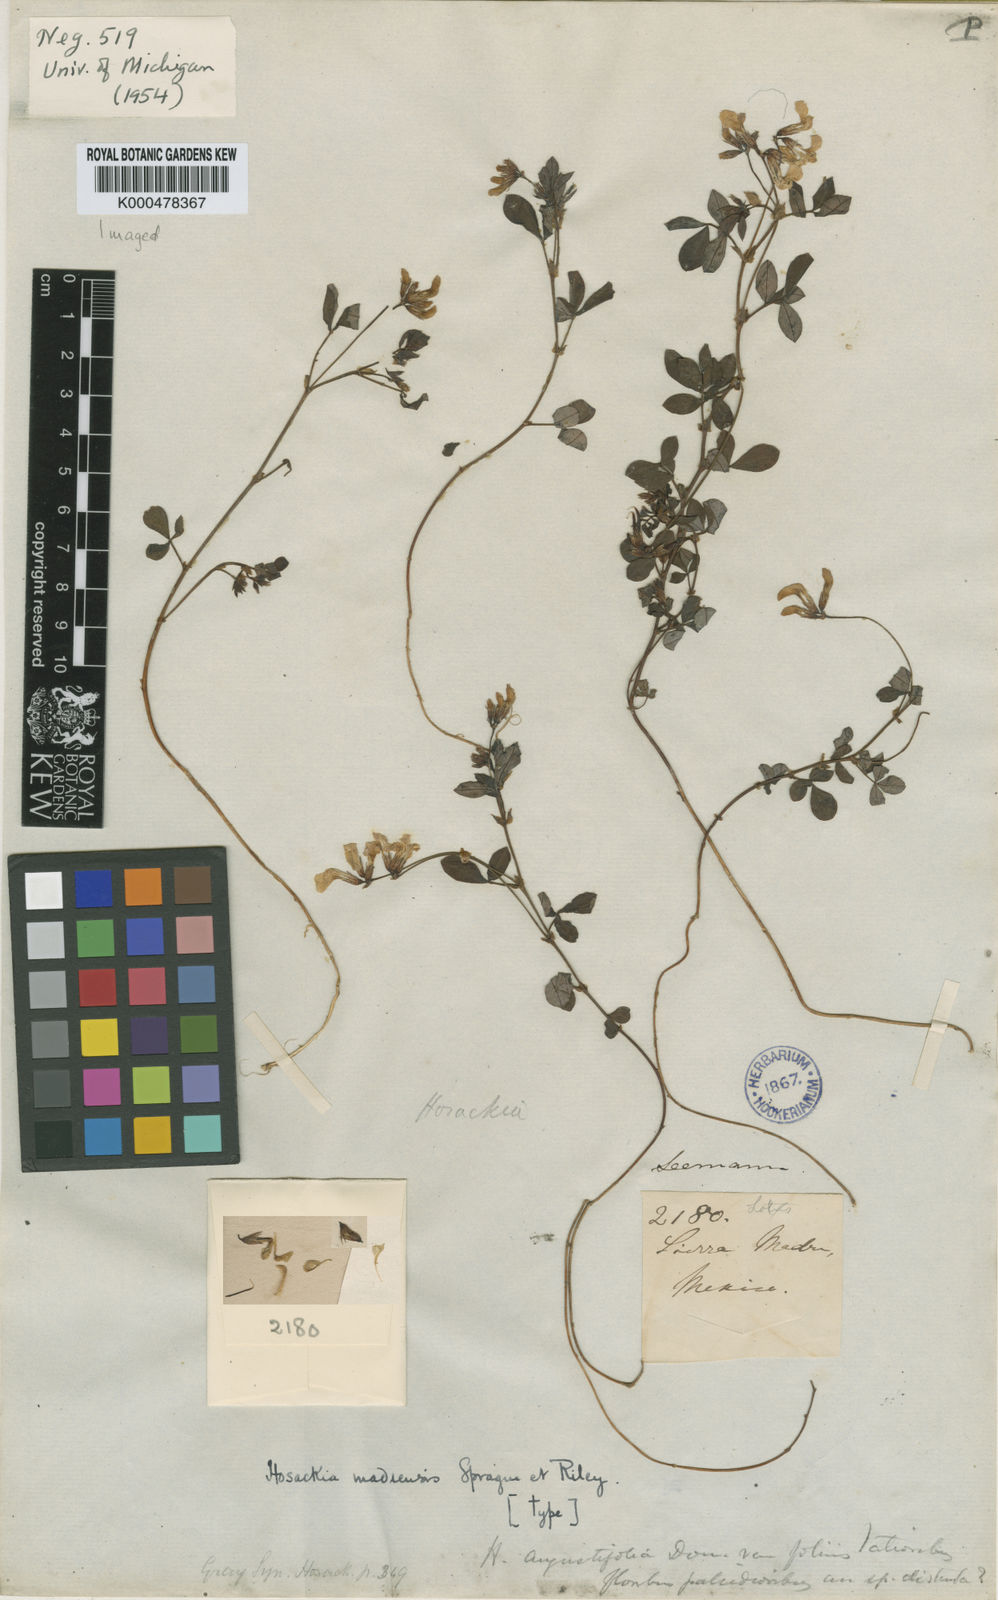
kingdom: Plantae
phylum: Tracheophyta
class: Magnoliopsida
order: Fabales
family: Fabaceae
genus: Hosackia
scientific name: Hosackia repens
